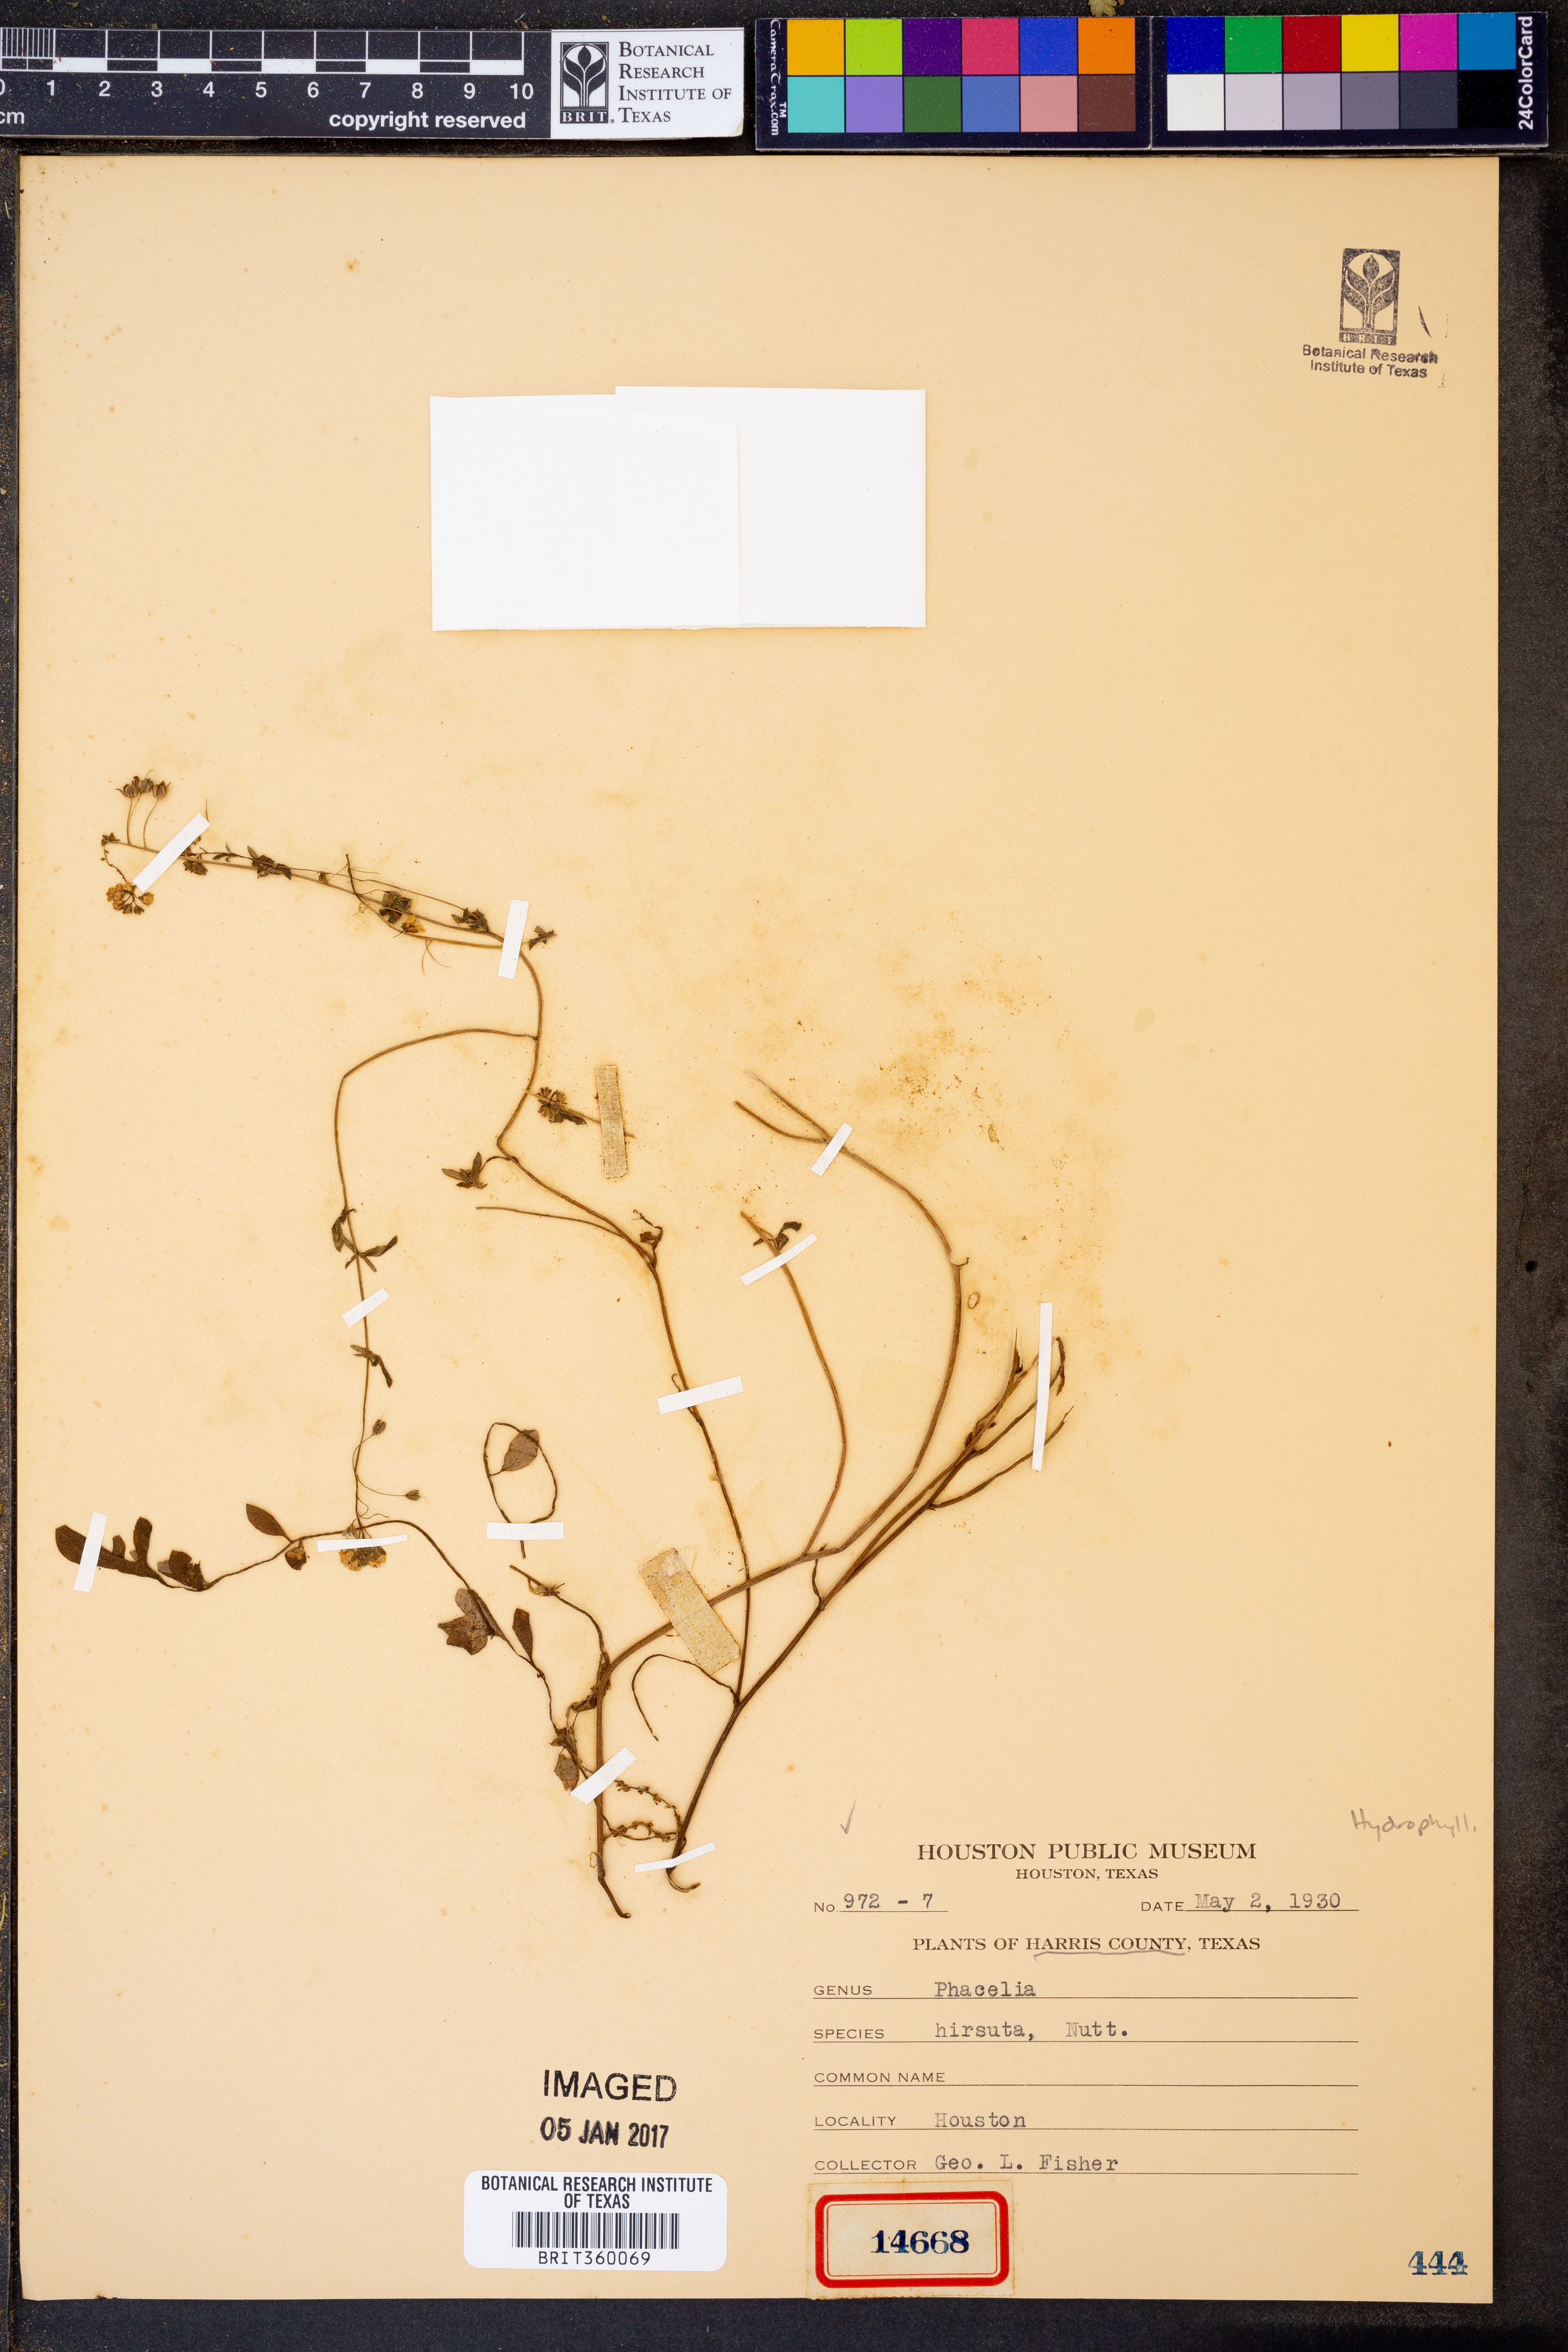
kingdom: Plantae
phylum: Tracheophyta
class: Magnoliopsida
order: Boraginales
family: Hydrophyllaceae
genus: Phacelia
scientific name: Phacelia hirsuta
